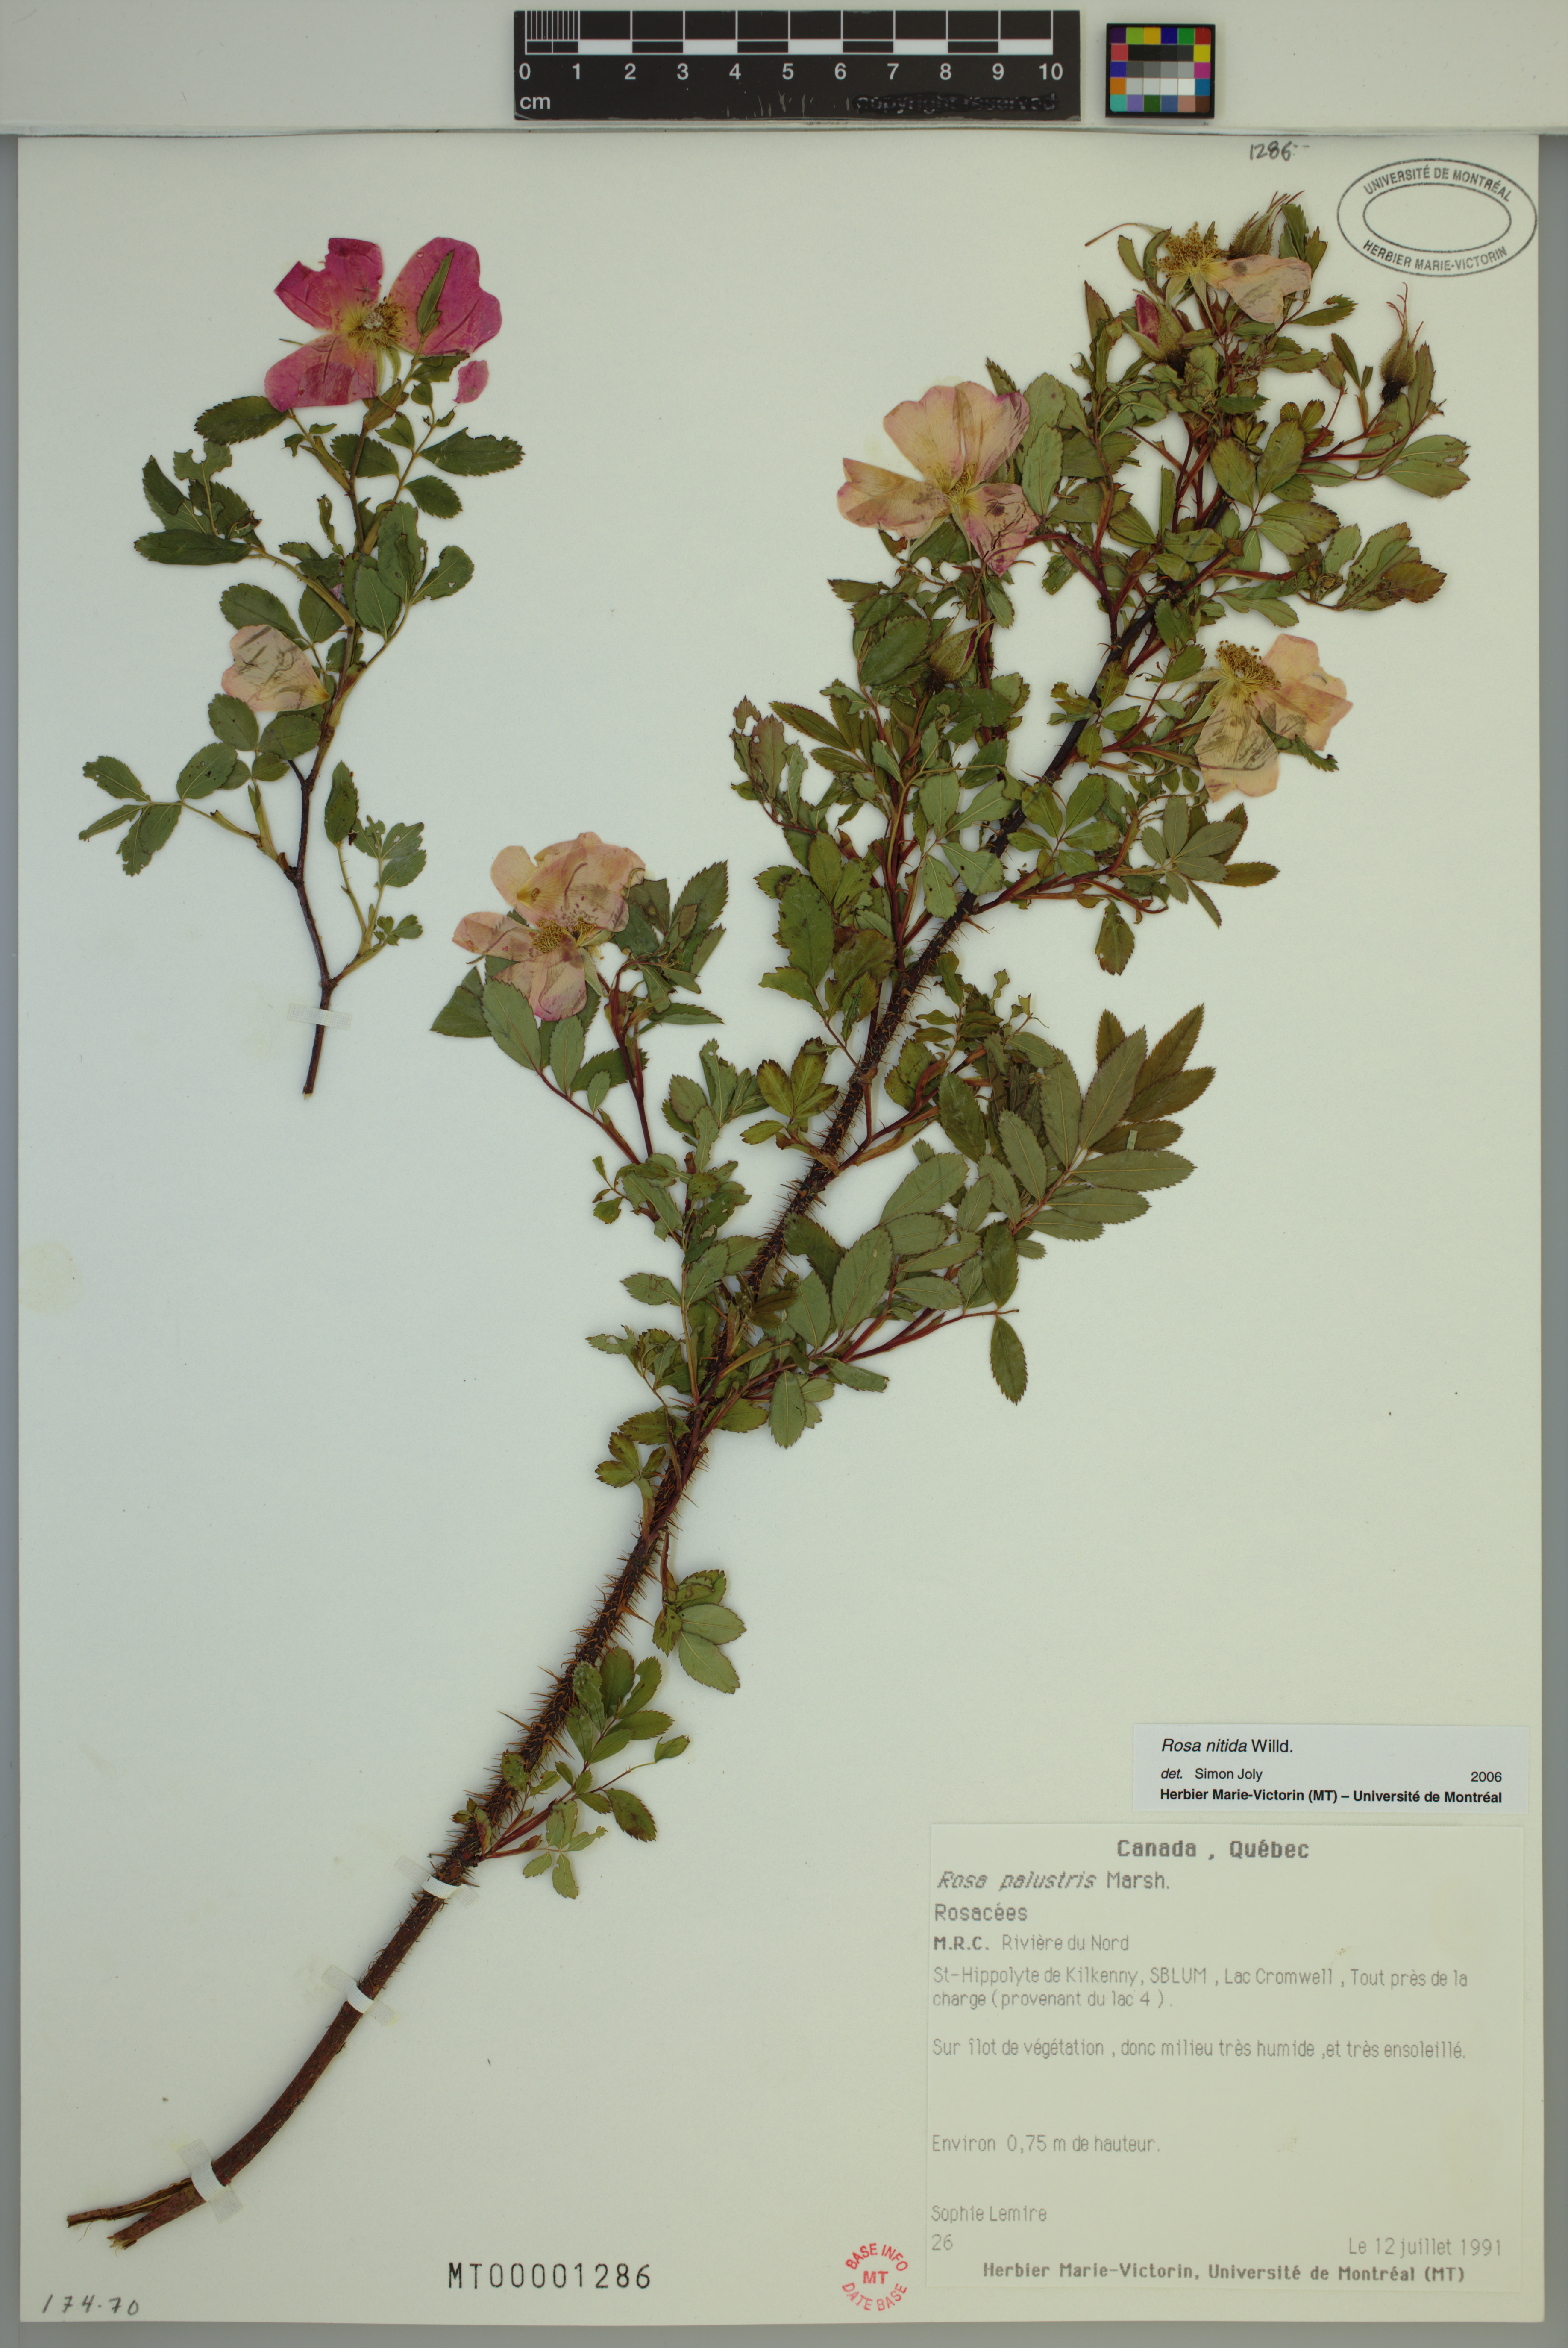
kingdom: Plantae
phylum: Tracheophyta
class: Magnoliopsida
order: Rosales
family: Rosaceae
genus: Rosa
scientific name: Rosa nitida
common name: New england rose
